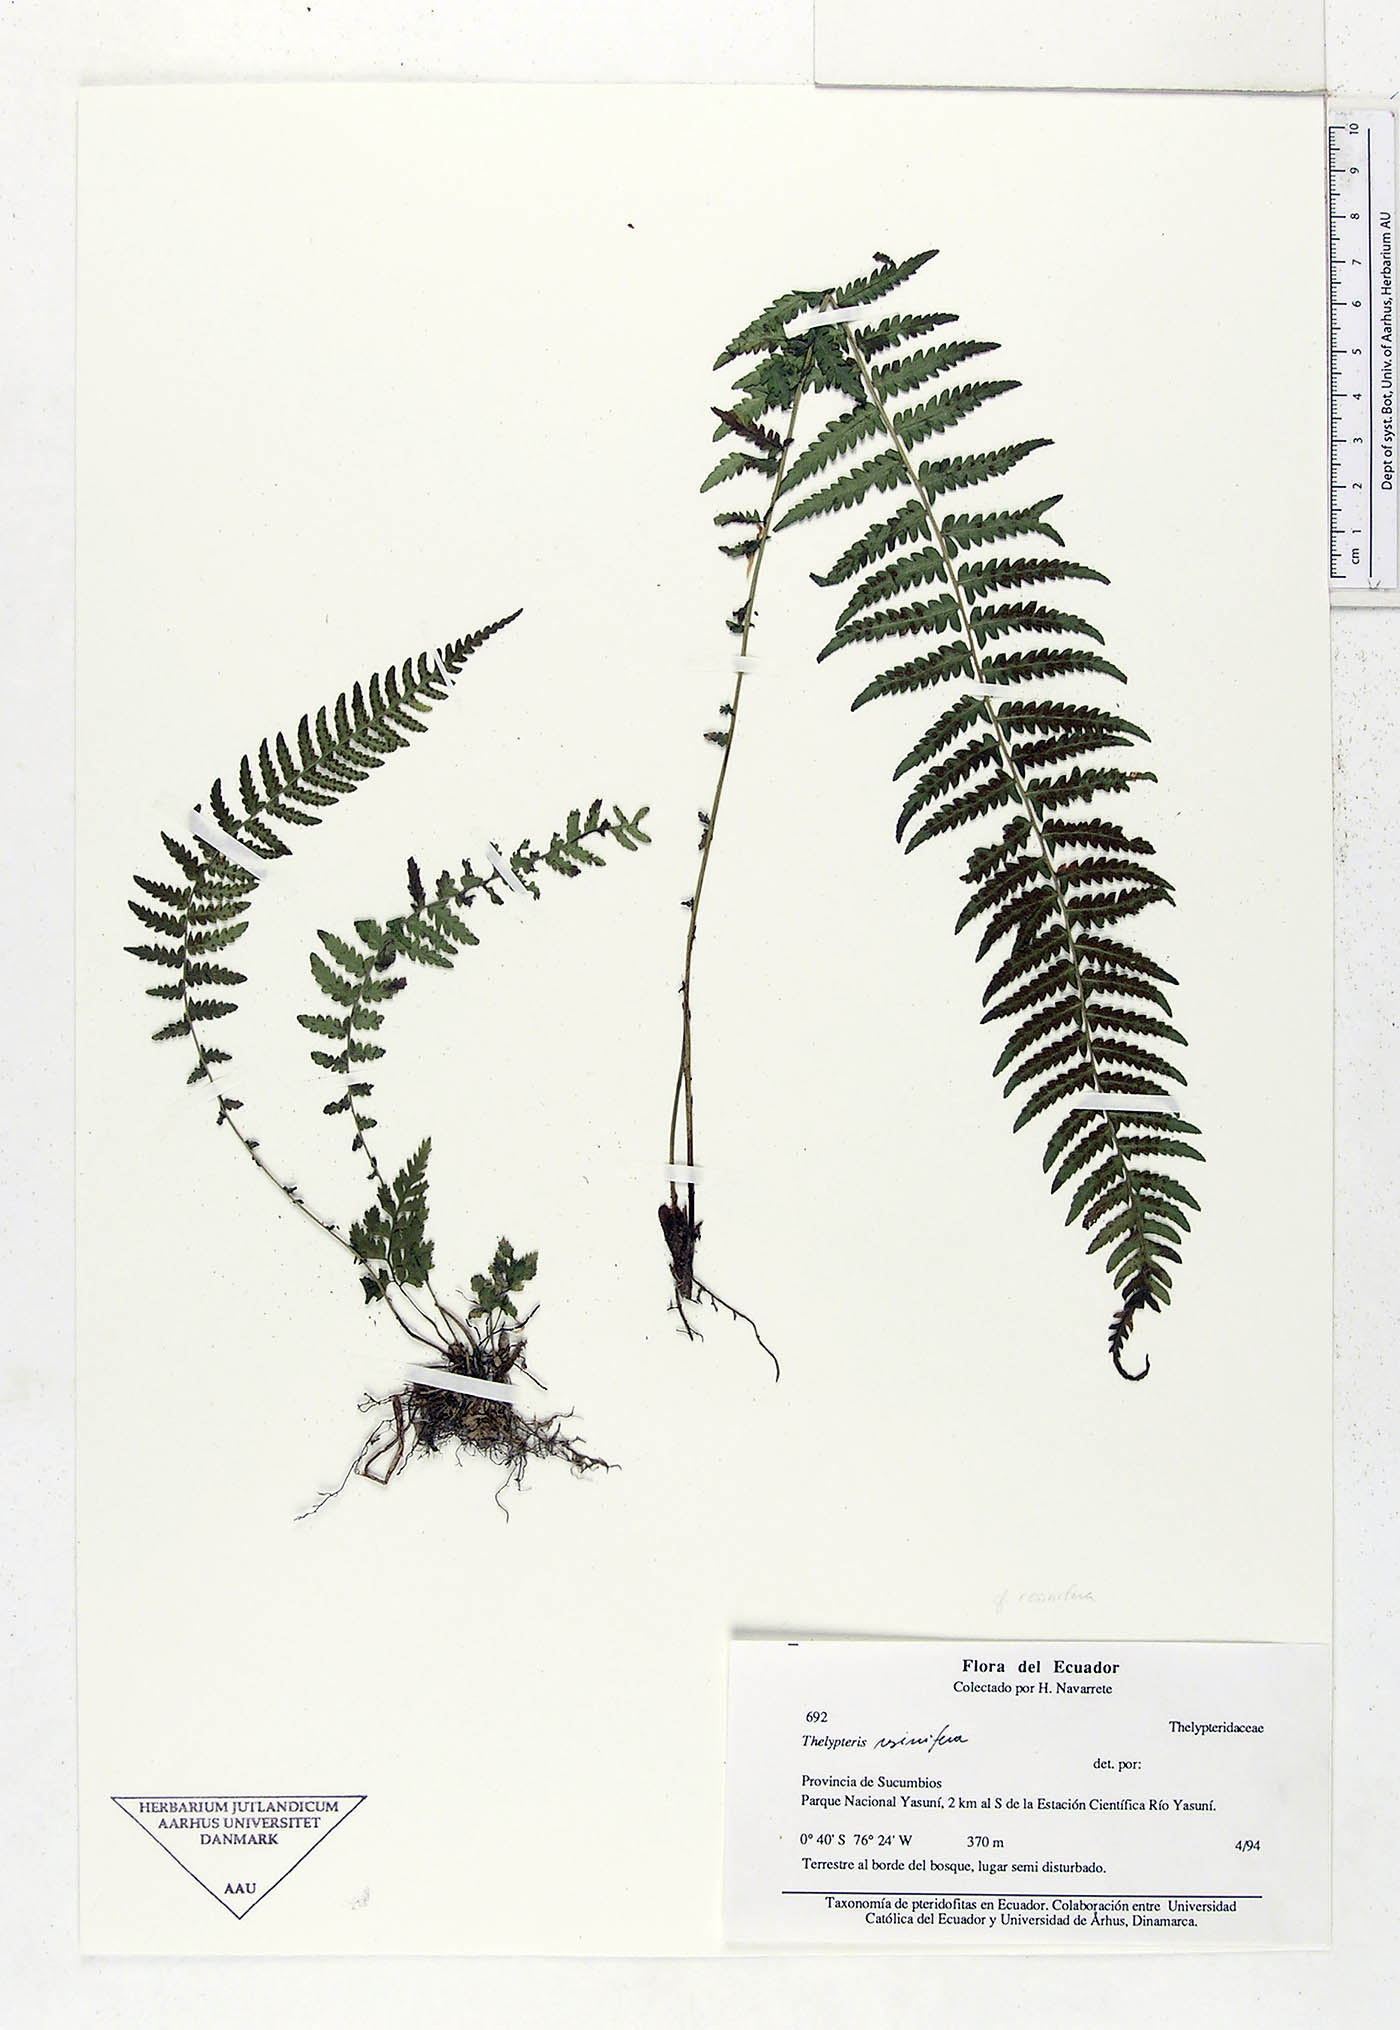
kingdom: Plantae
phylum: Tracheophyta
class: Polypodiopsida
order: Polypodiales
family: Thelypteridaceae
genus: Amauropelta
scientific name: Amauropelta resinifera
